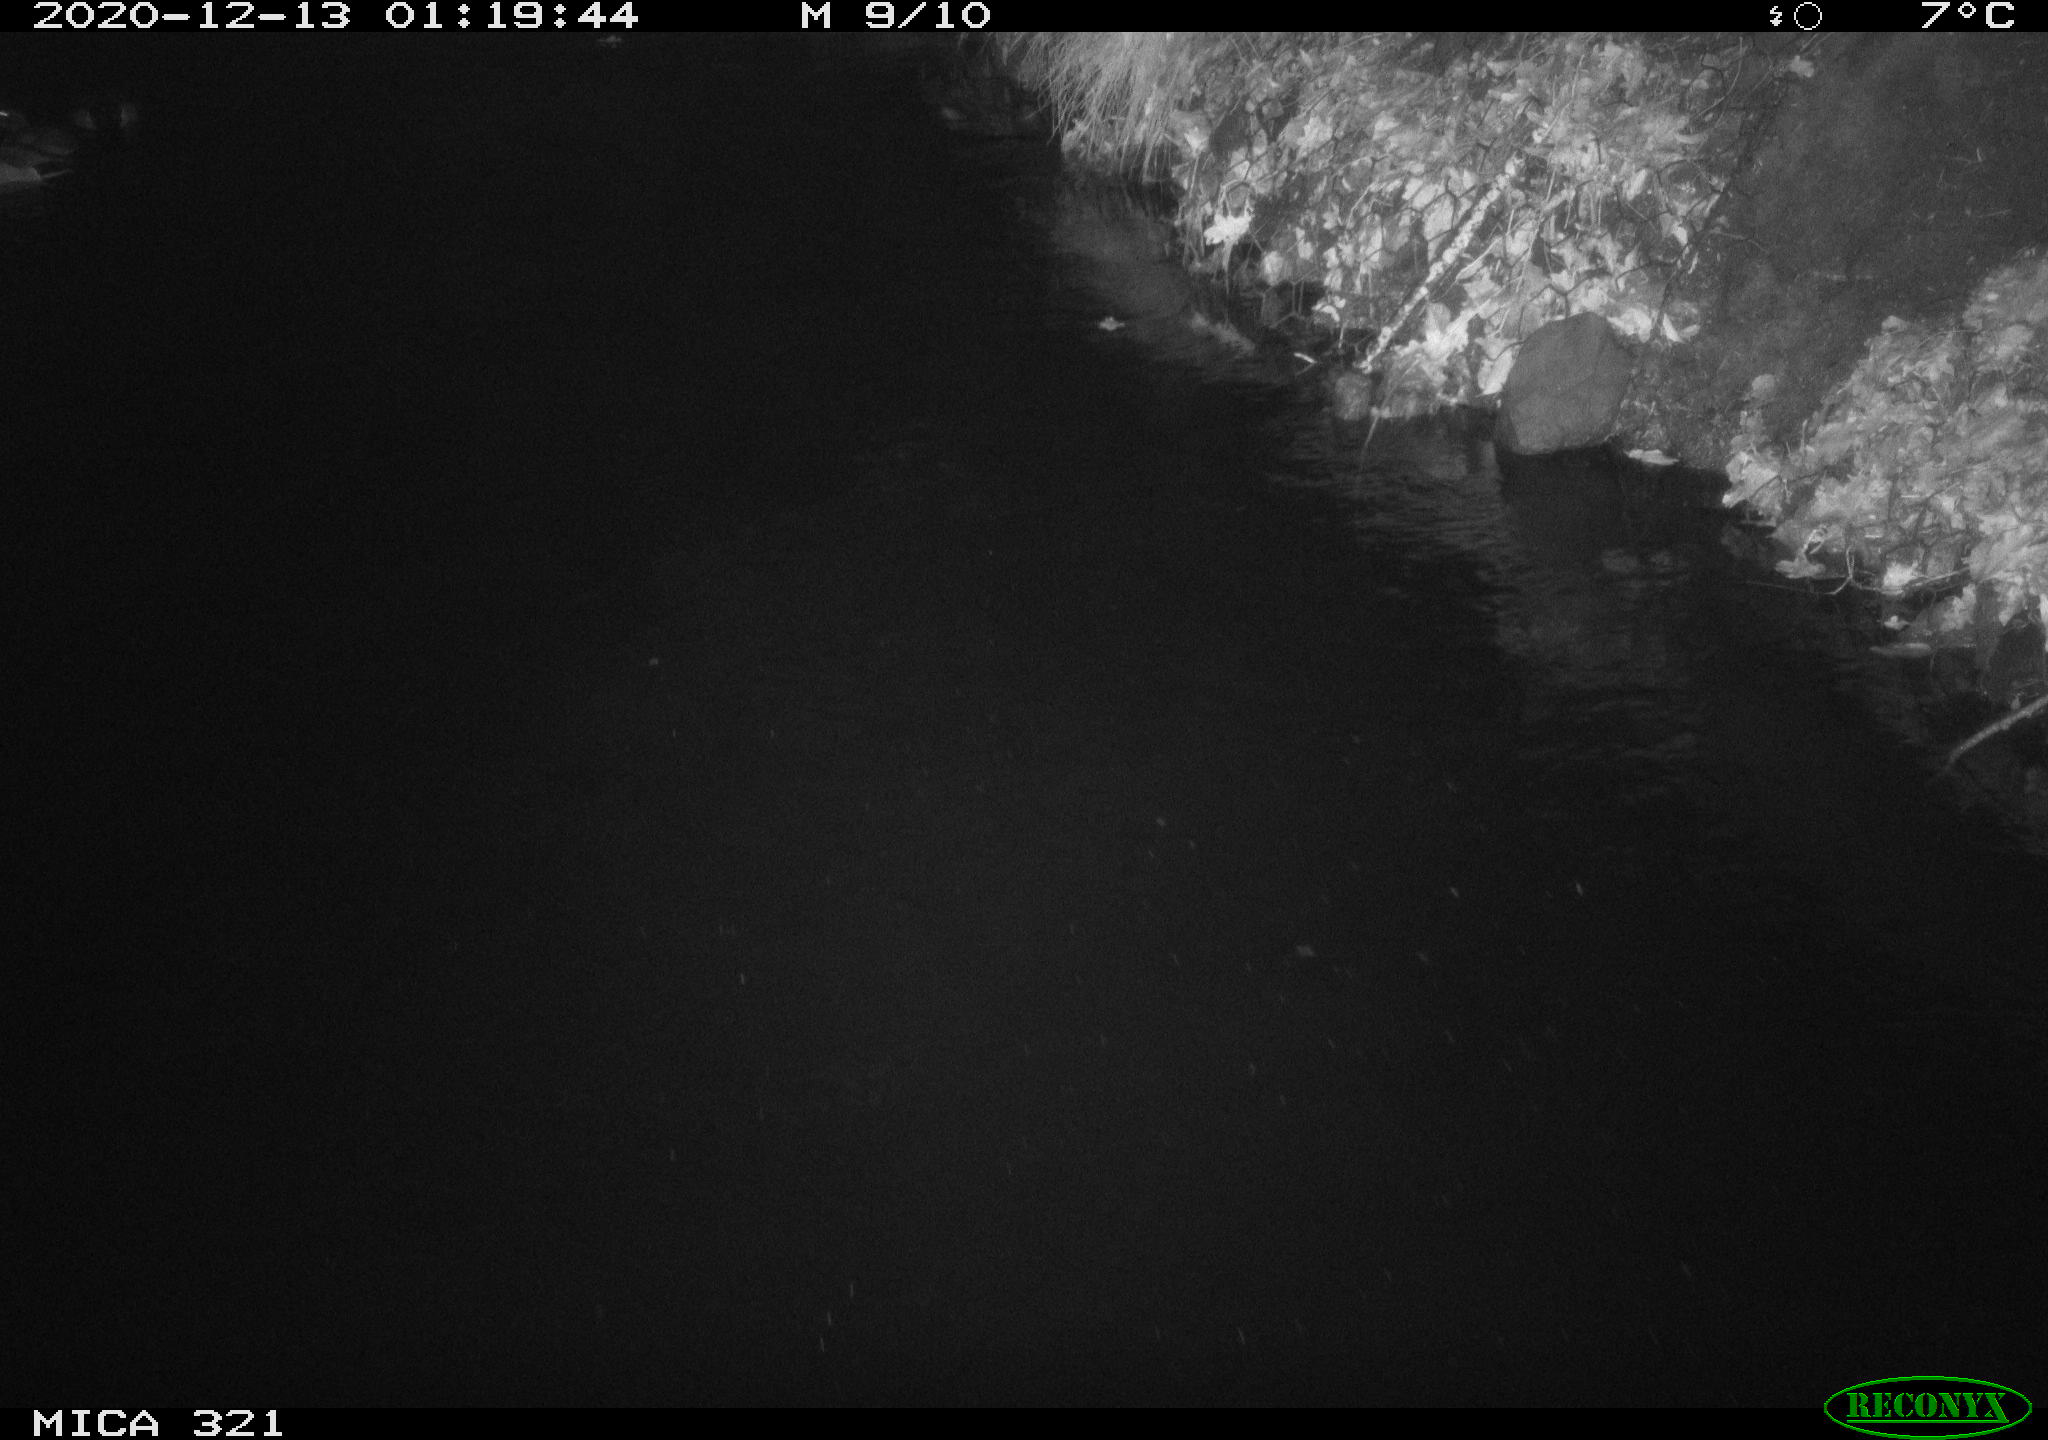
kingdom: Animalia
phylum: Chordata
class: Aves
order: Anseriformes
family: Anatidae
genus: Anas
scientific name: Anas platyrhynchos
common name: Mallard
